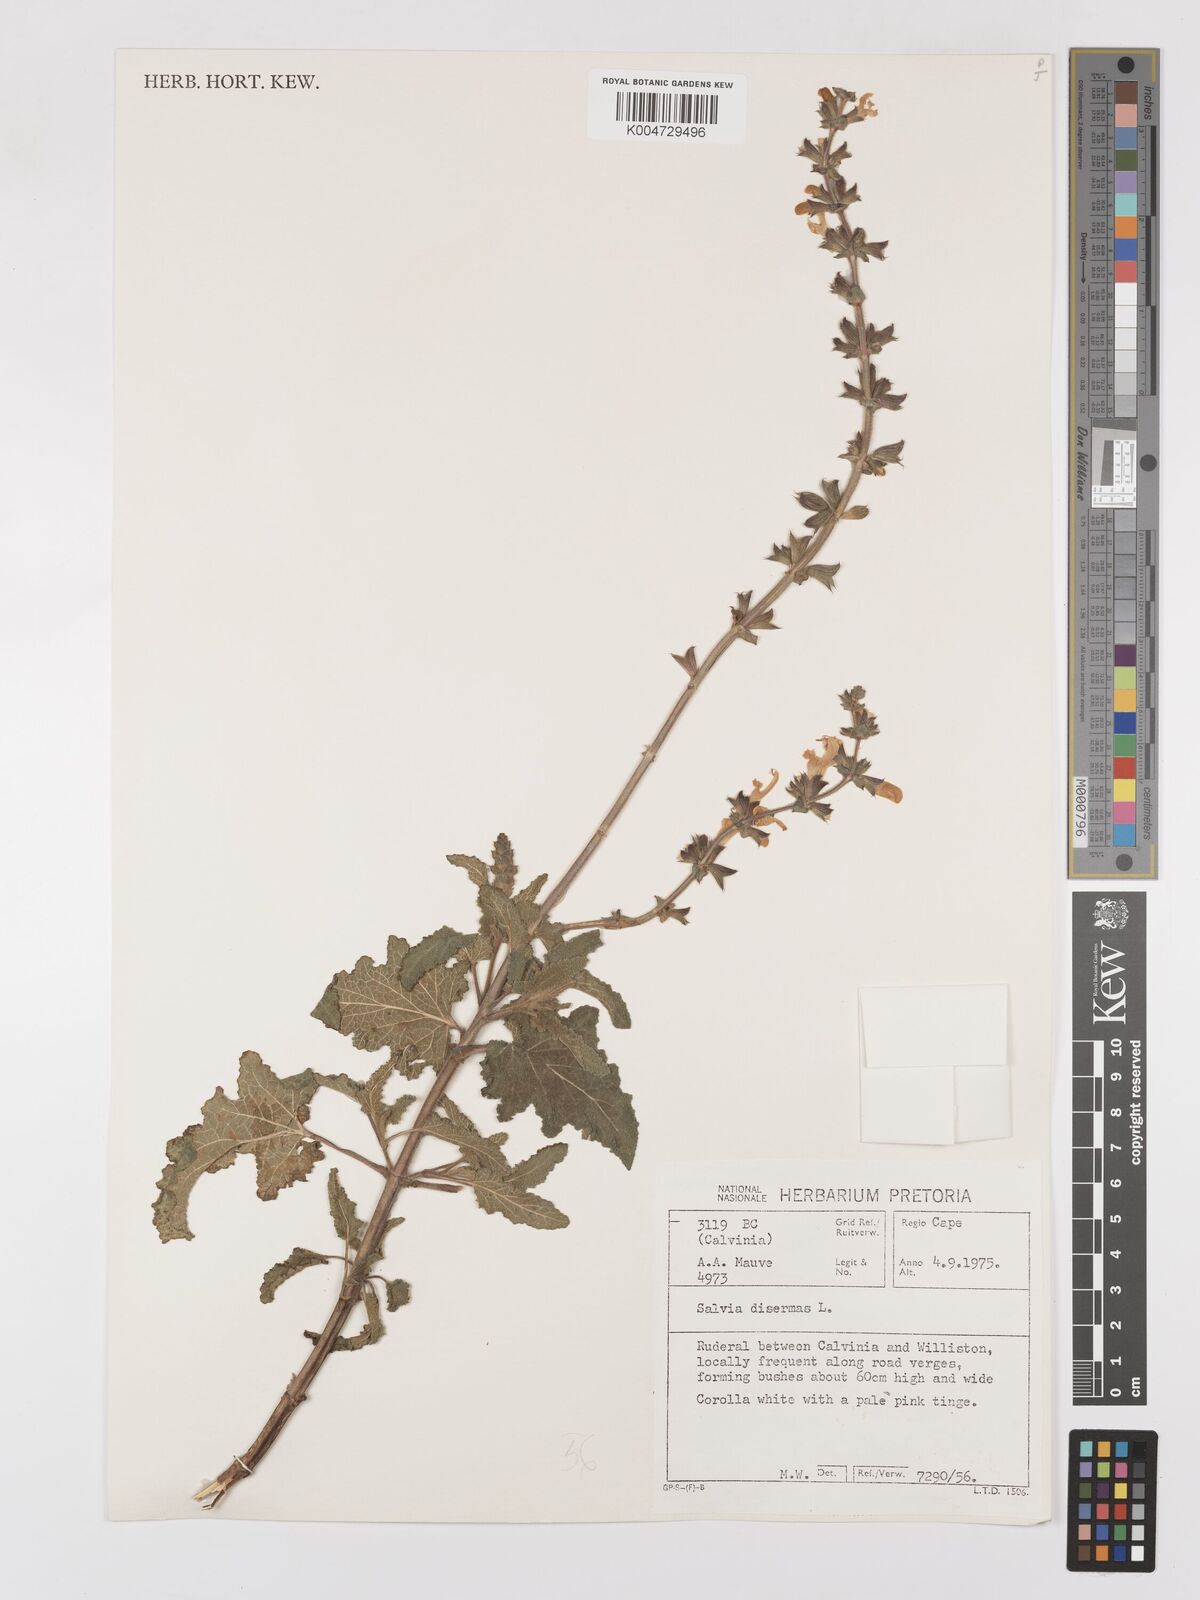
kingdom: Plantae
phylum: Tracheophyta
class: Magnoliopsida
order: Lamiales
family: Lamiaceae
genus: Salvia
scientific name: Salvia
